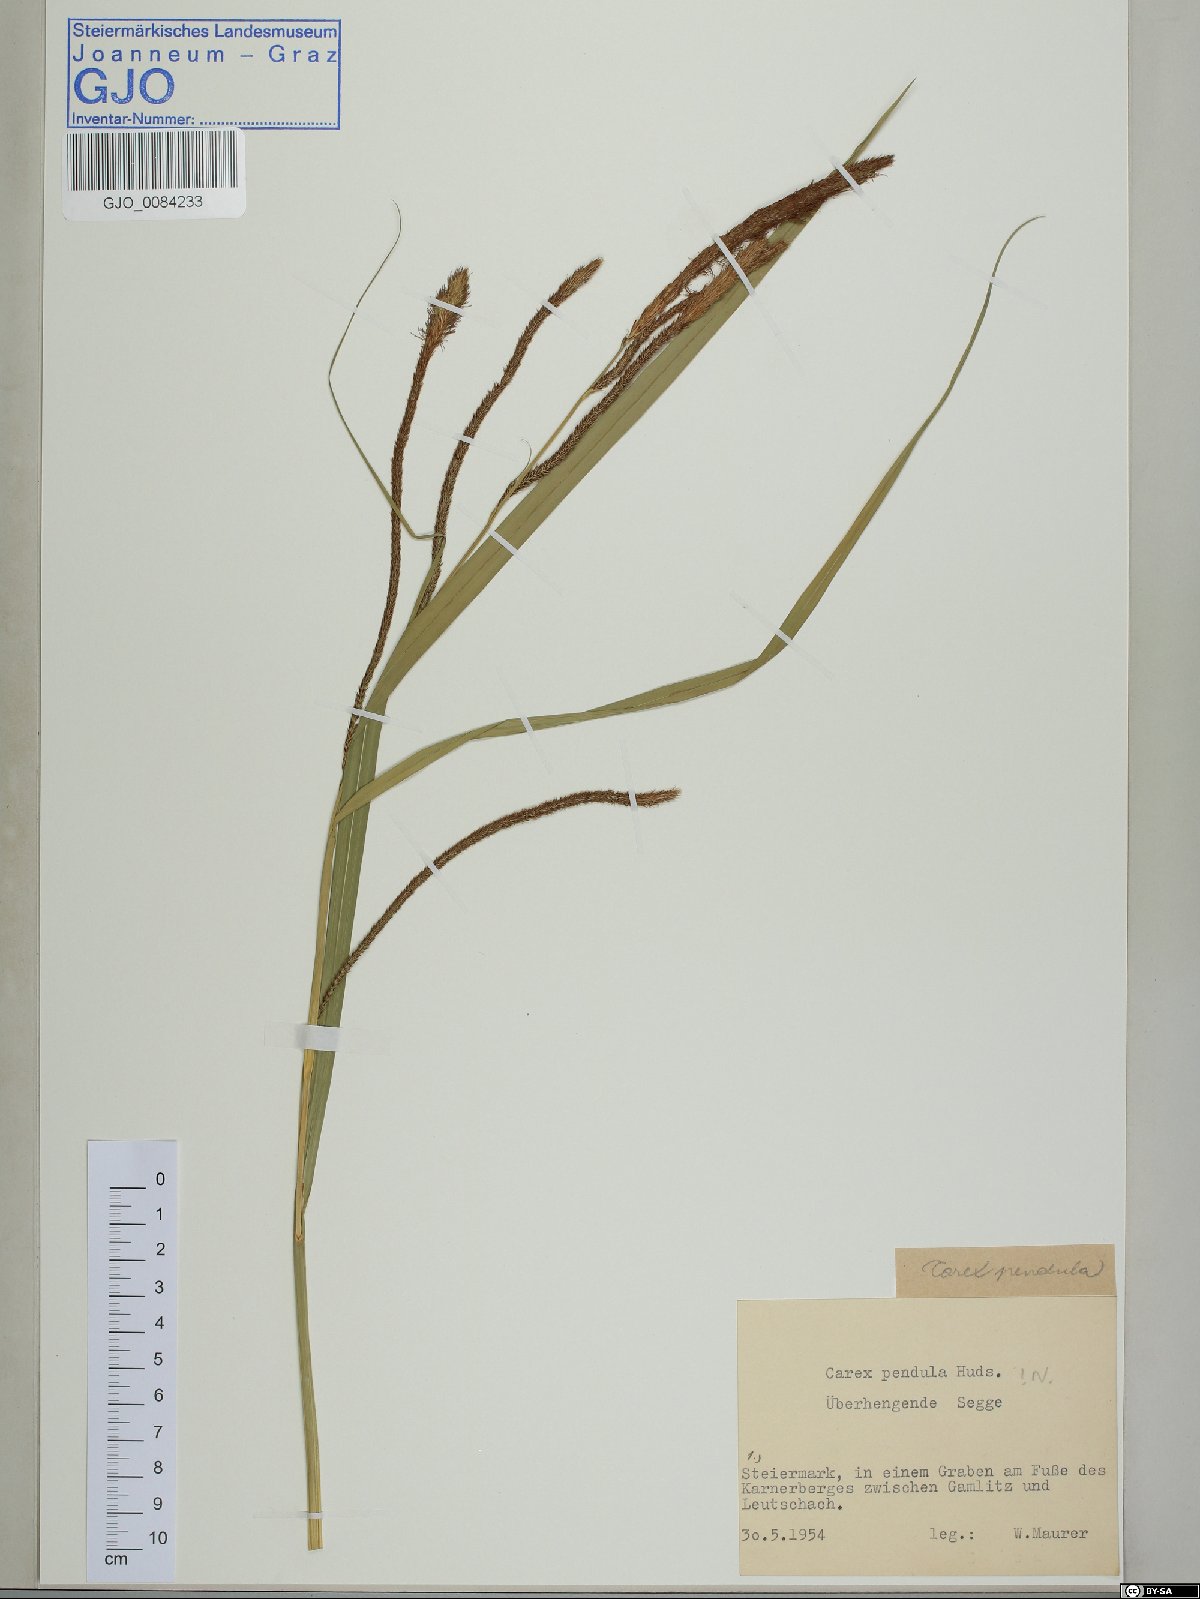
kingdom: Plantae
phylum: Tracheophyta
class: Liliopsida
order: Poales
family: Cyperaceae
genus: Carex
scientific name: Carex pendula
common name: Pendulous sedge
